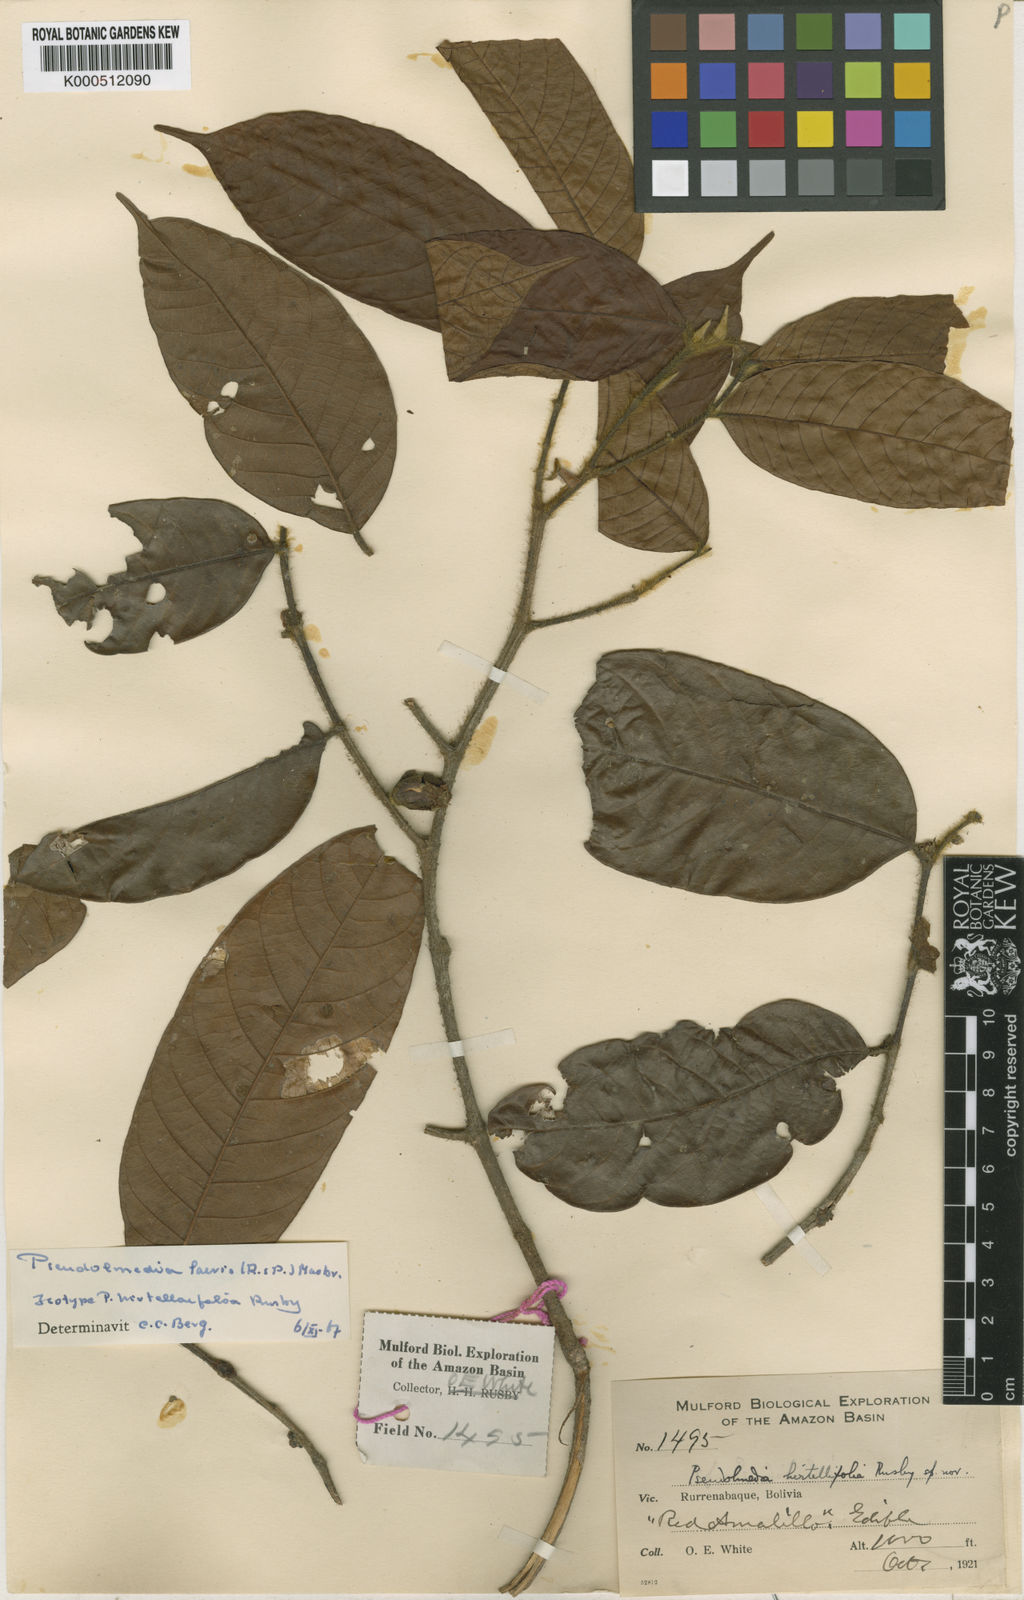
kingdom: Plantae
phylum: Tracheophyta
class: Magnoliopsida
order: Rosales
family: Moraceae
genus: Pseudolmedia
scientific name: Pseudolmedia laevis
